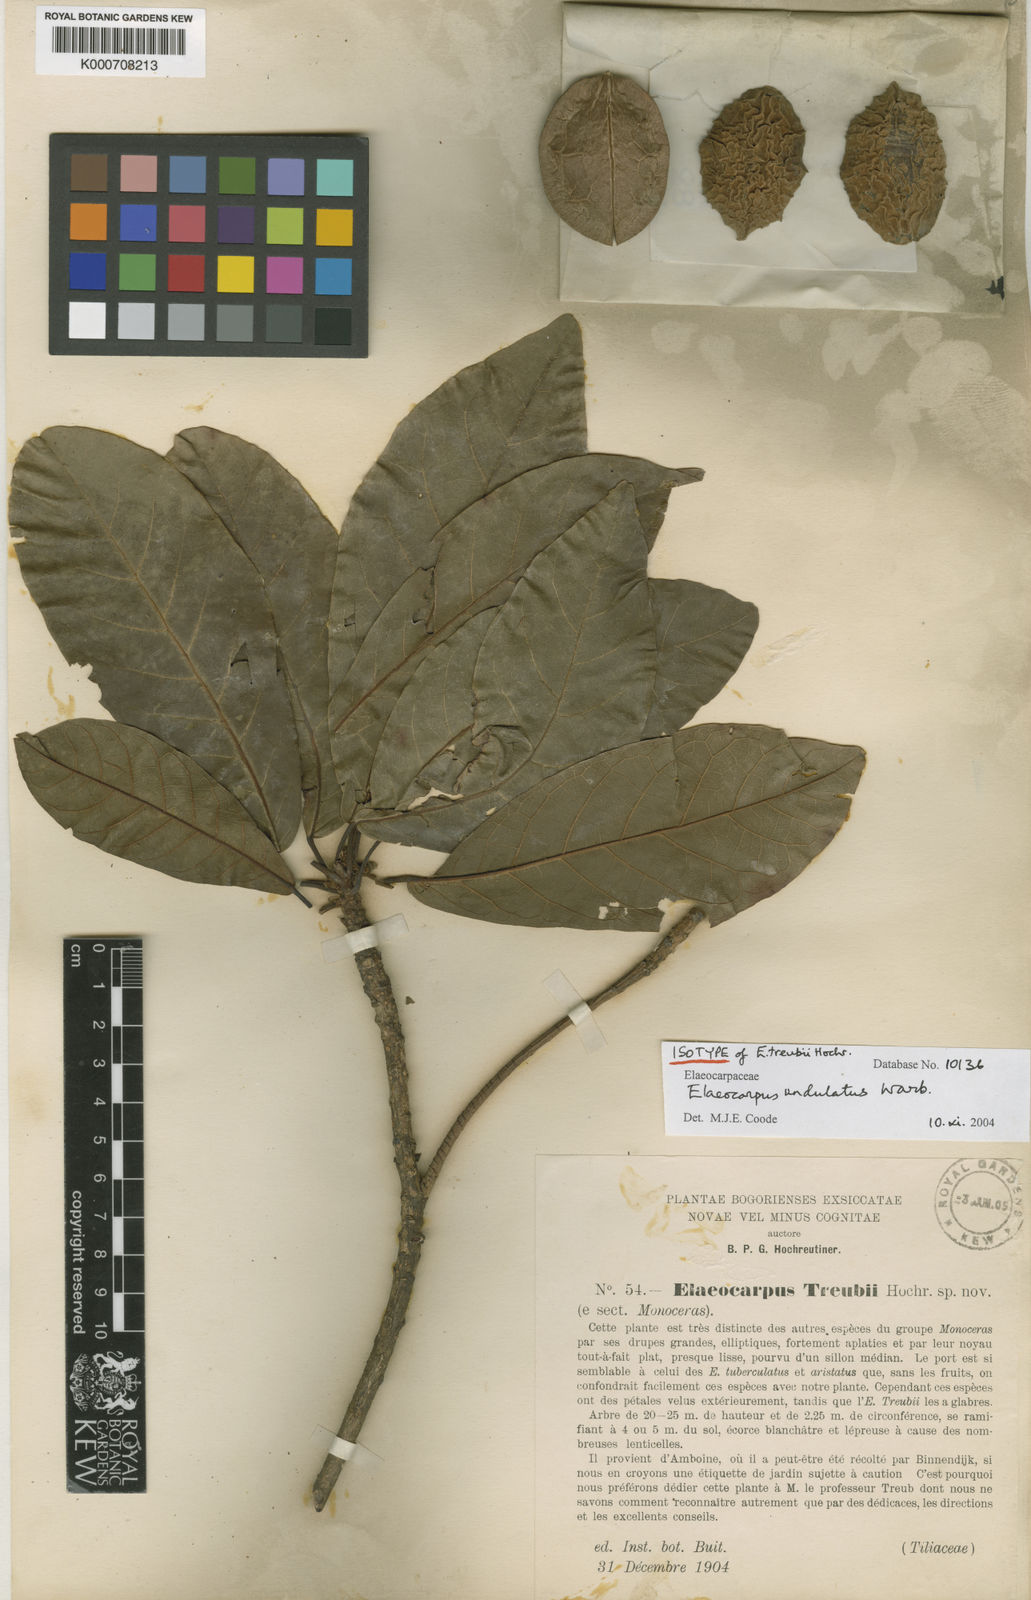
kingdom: Plantae
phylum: Tracheophyta
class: Magnoliopsida
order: Oxalidales
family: Elaeocarpaceae
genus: Elaeocarpus
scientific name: Elaeocarpus undulatus
